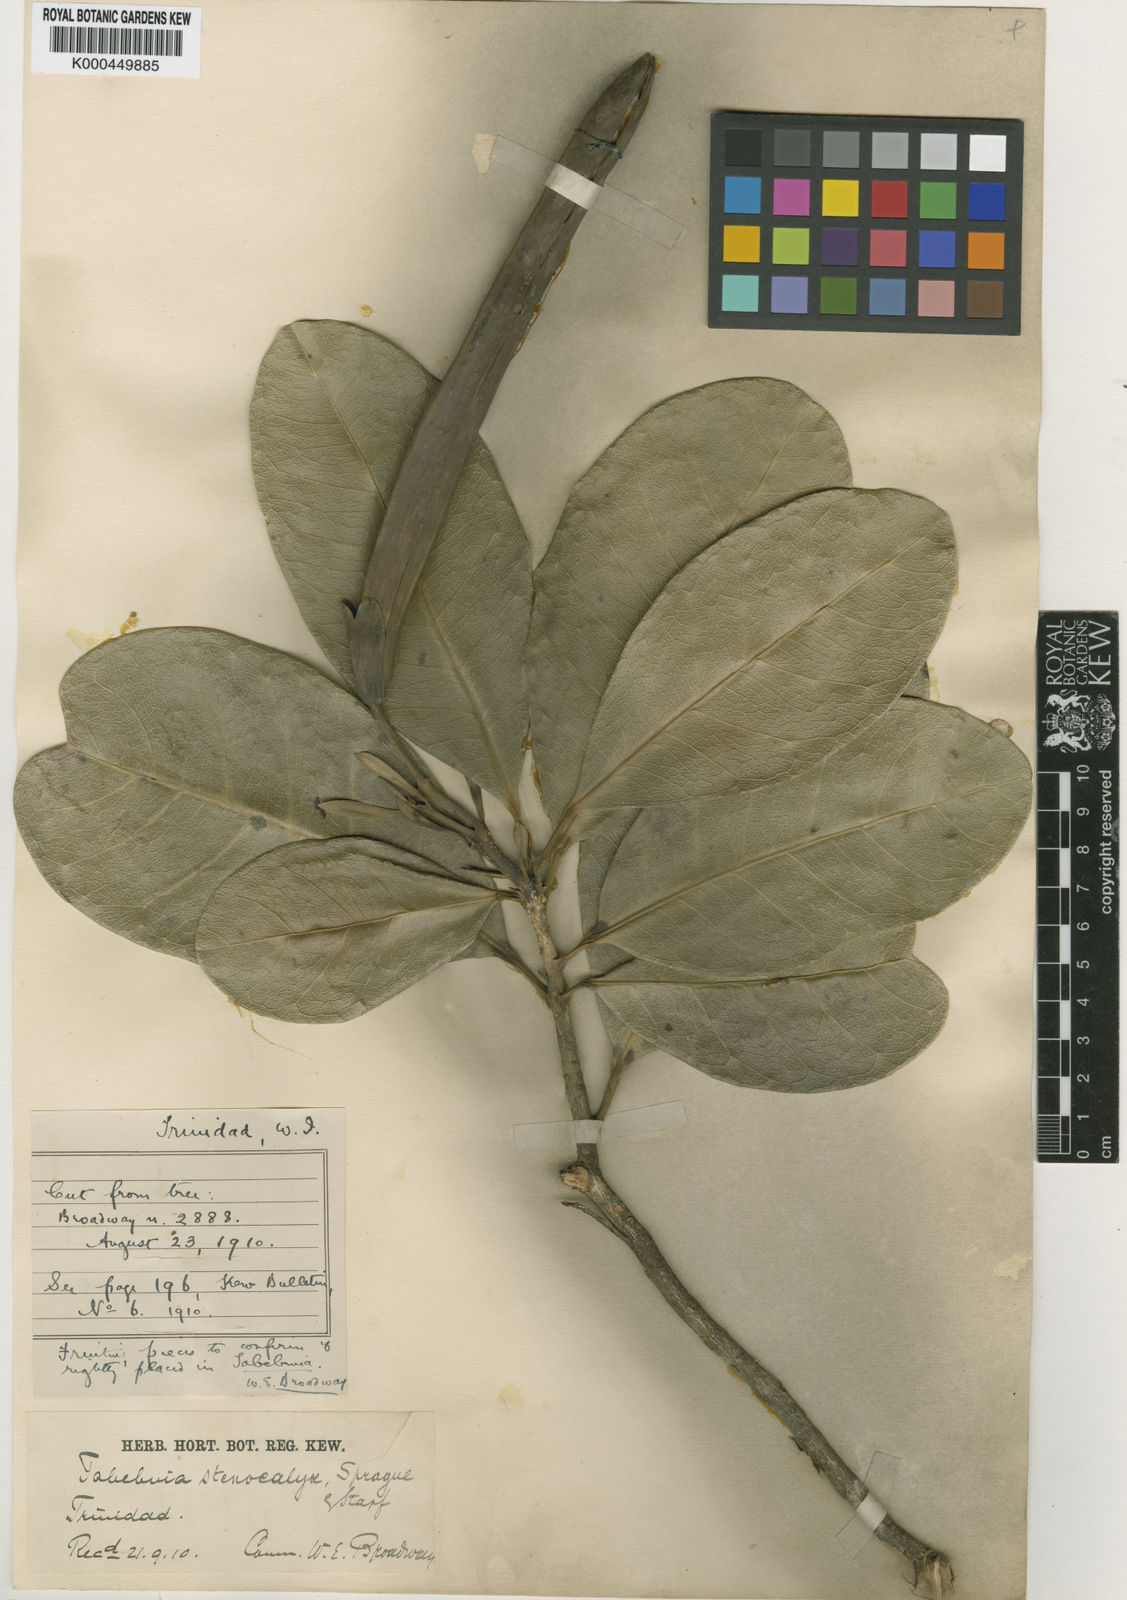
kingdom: Plantae
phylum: Tracheophyta
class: Magnoliopsida
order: Lamiales
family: Bignoniaceae
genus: Tabebuia
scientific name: Tabebuia stenocalyx
